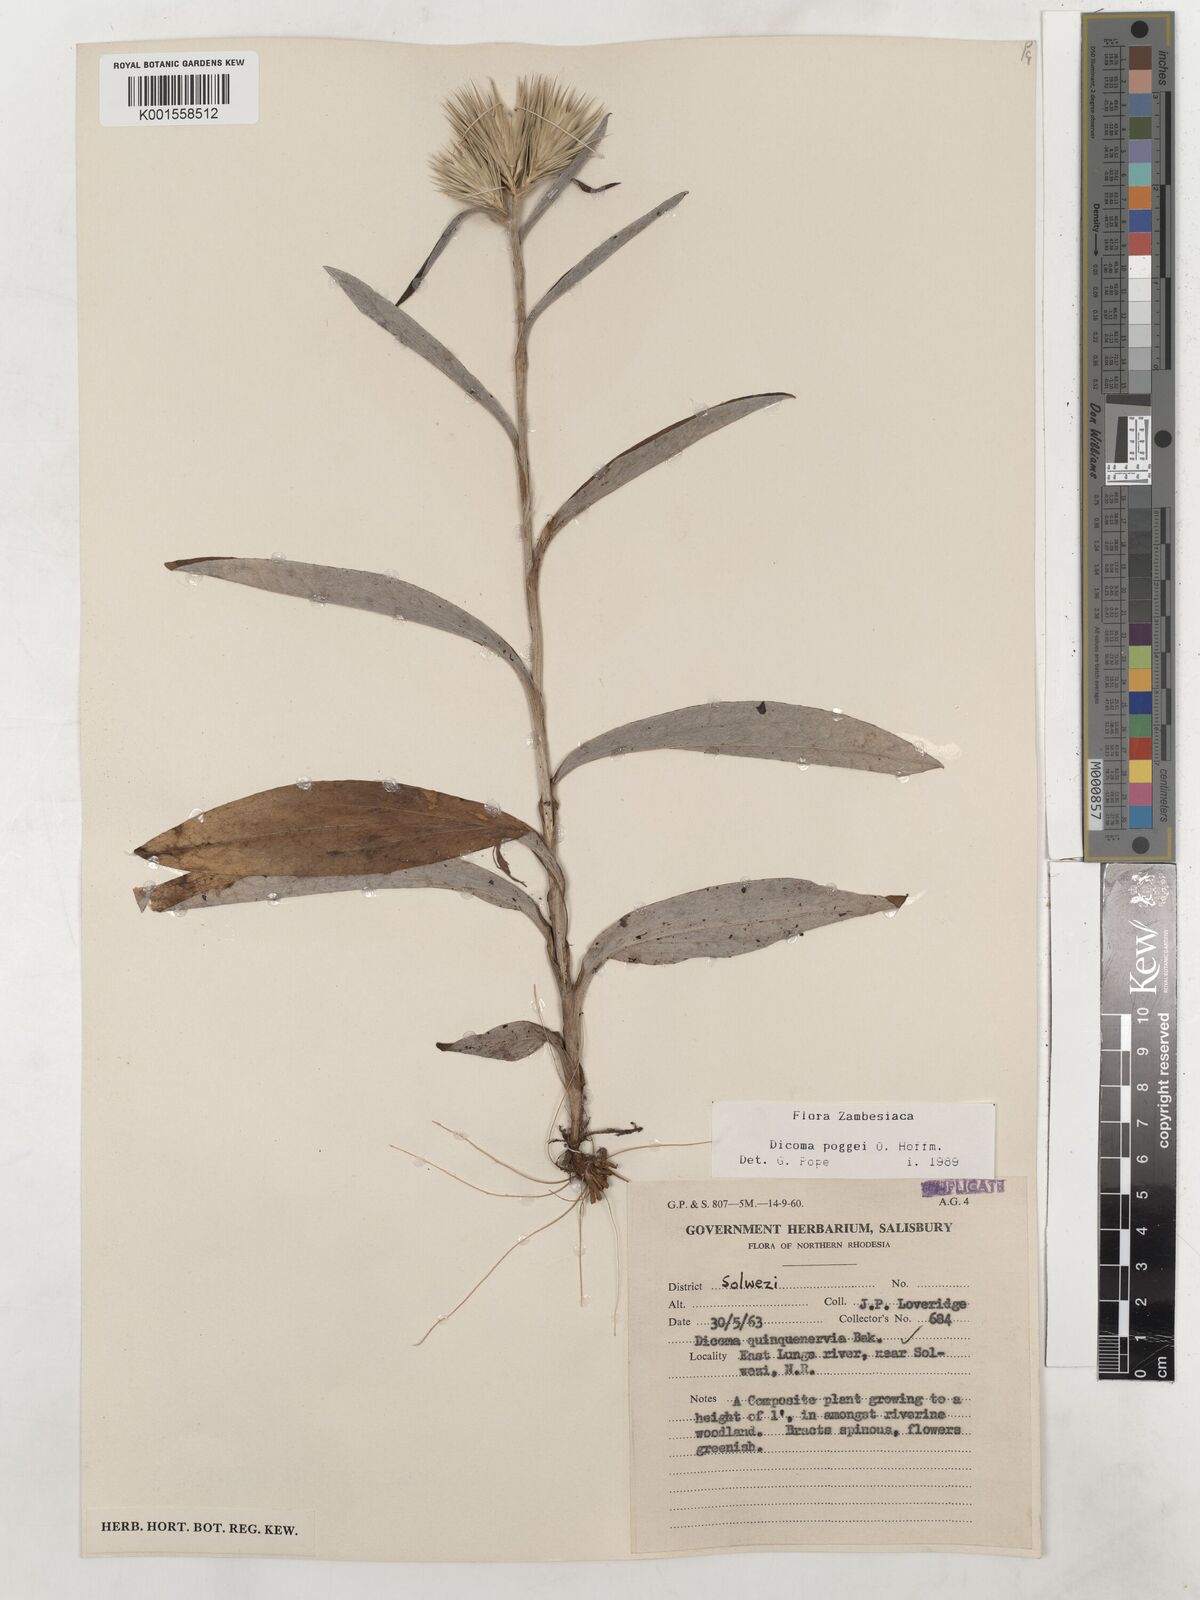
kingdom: Plantae
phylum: Tracheophyta
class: Magnoliopsida
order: Asterales
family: Asteraceae
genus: Macledium
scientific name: Macledium poggei
